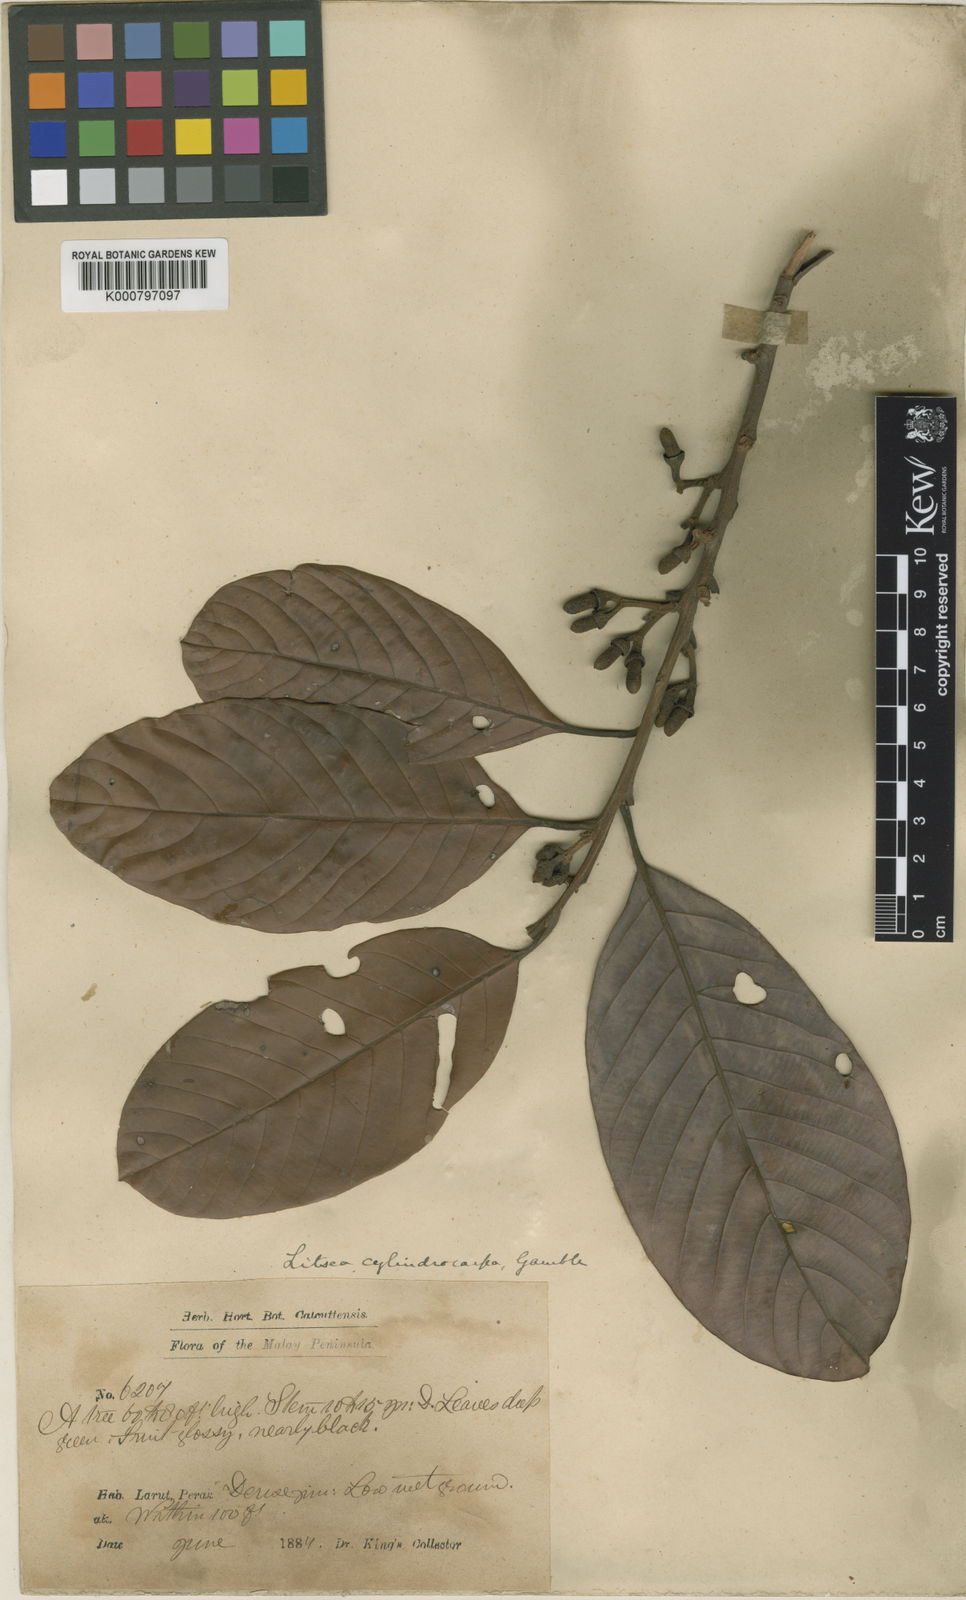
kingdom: Plantae
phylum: Tracheophyta
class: Magnoliopsida
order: Laurales
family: Lauraceae
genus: Litsea
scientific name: Litsea umbellata
